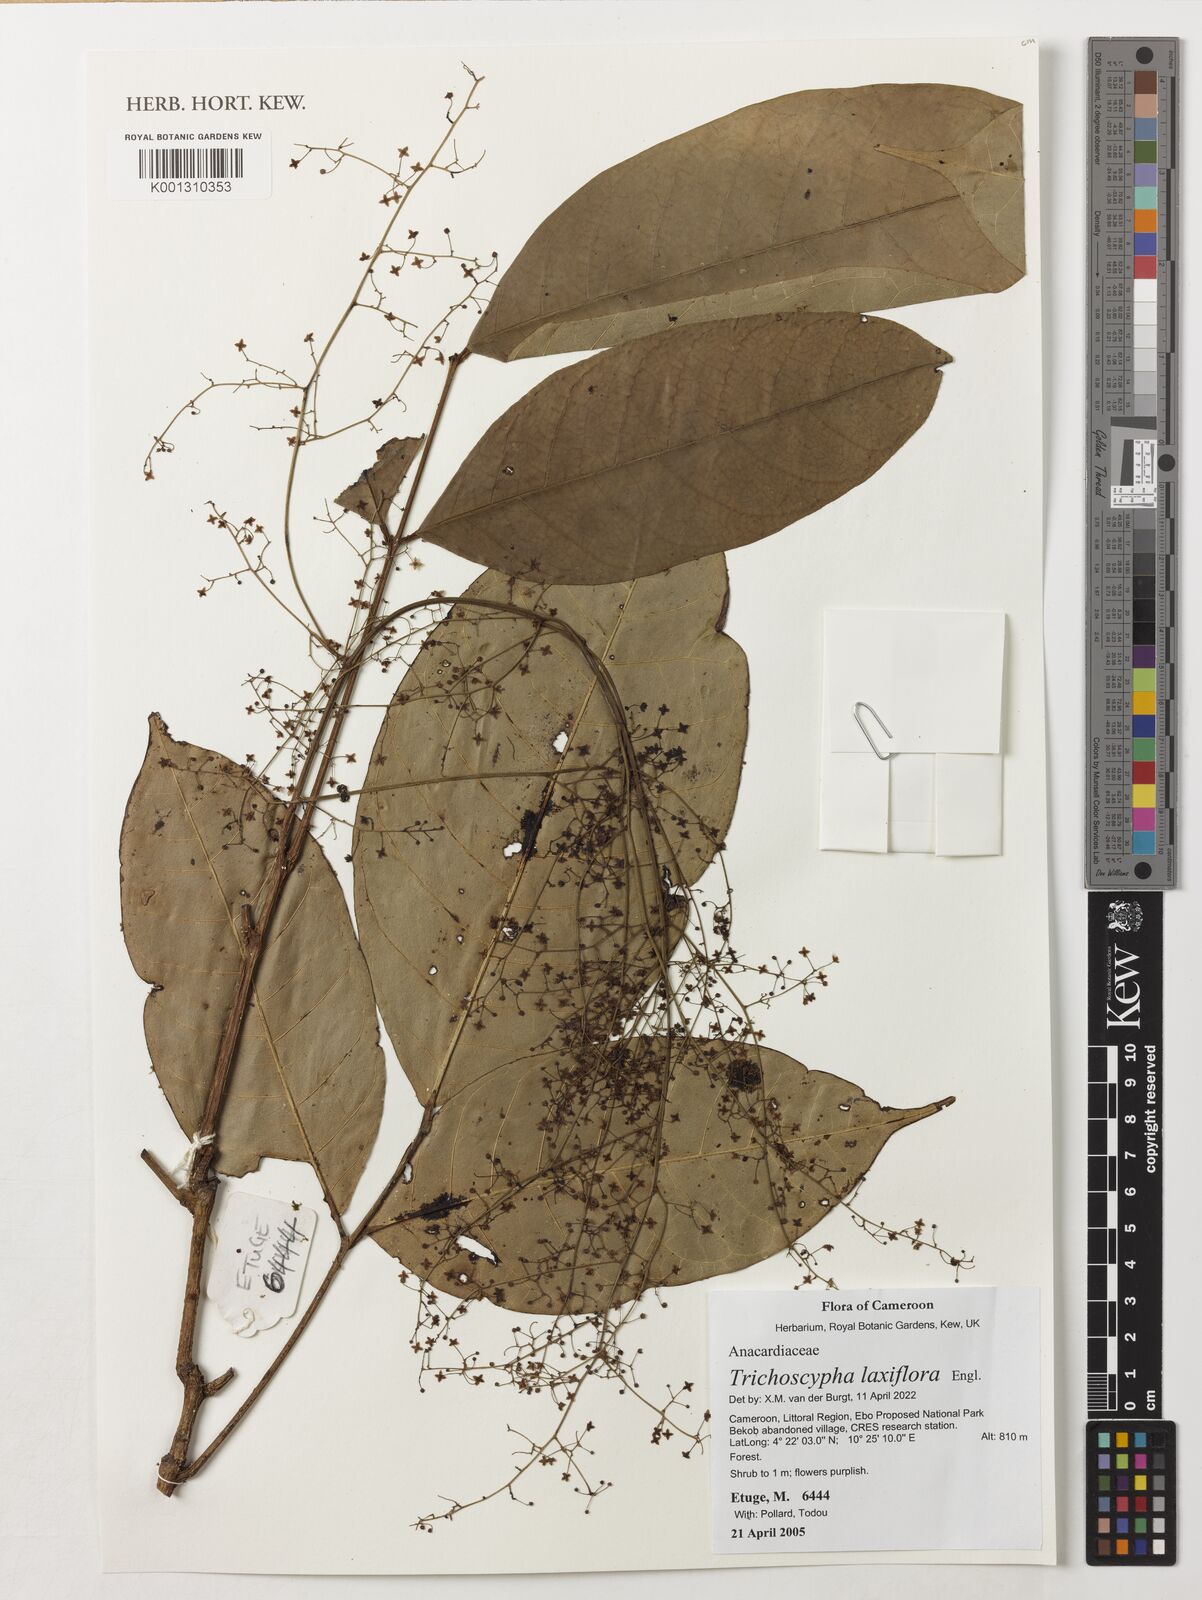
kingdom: Plantae
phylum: Tracheophyta
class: Magnoliopsida
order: Sapindales
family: Anacardiaceae
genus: Trichoscypha
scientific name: Trichoscypha laxiflora
